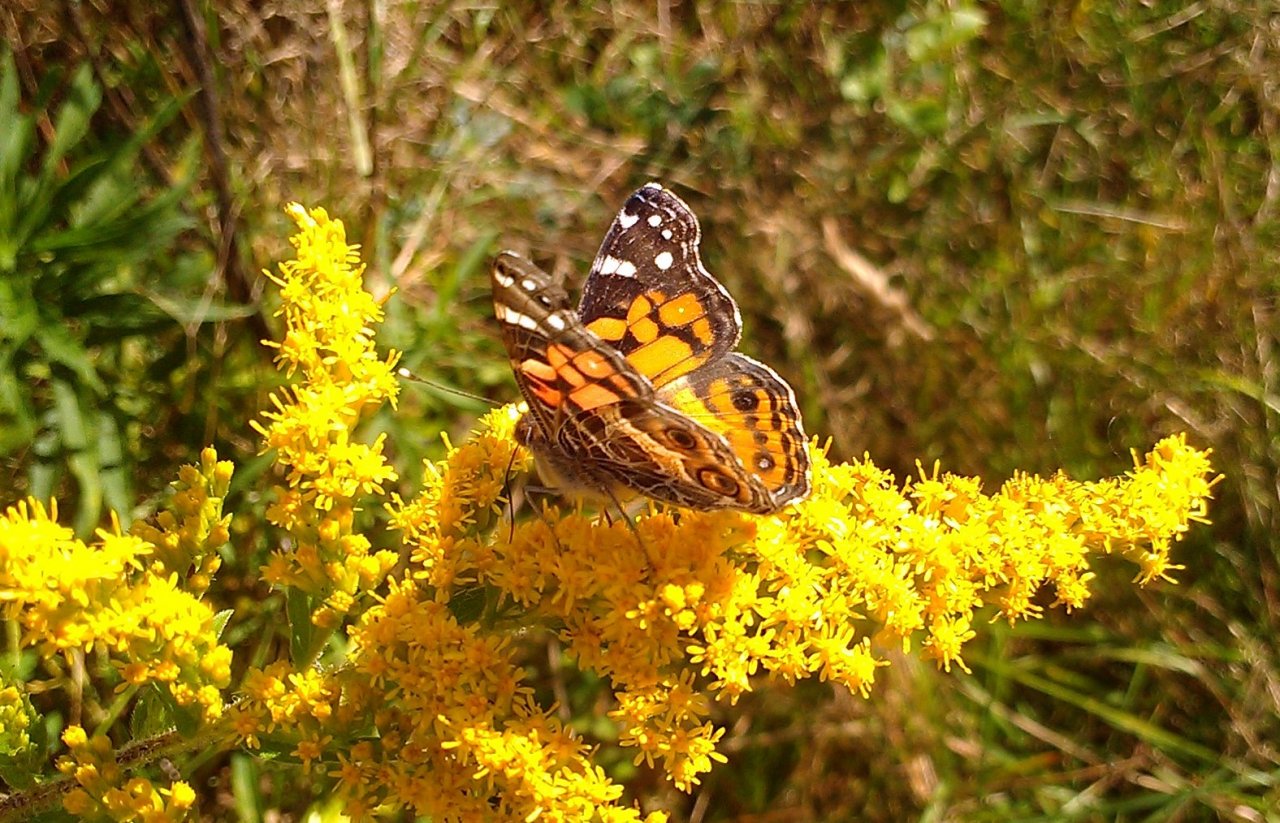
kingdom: Animalia
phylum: Arthropoda
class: Insecta
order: Lepidoptera
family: Nymphalidae
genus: Vanessa
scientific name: Vanessa virginiensis
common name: American Lady
